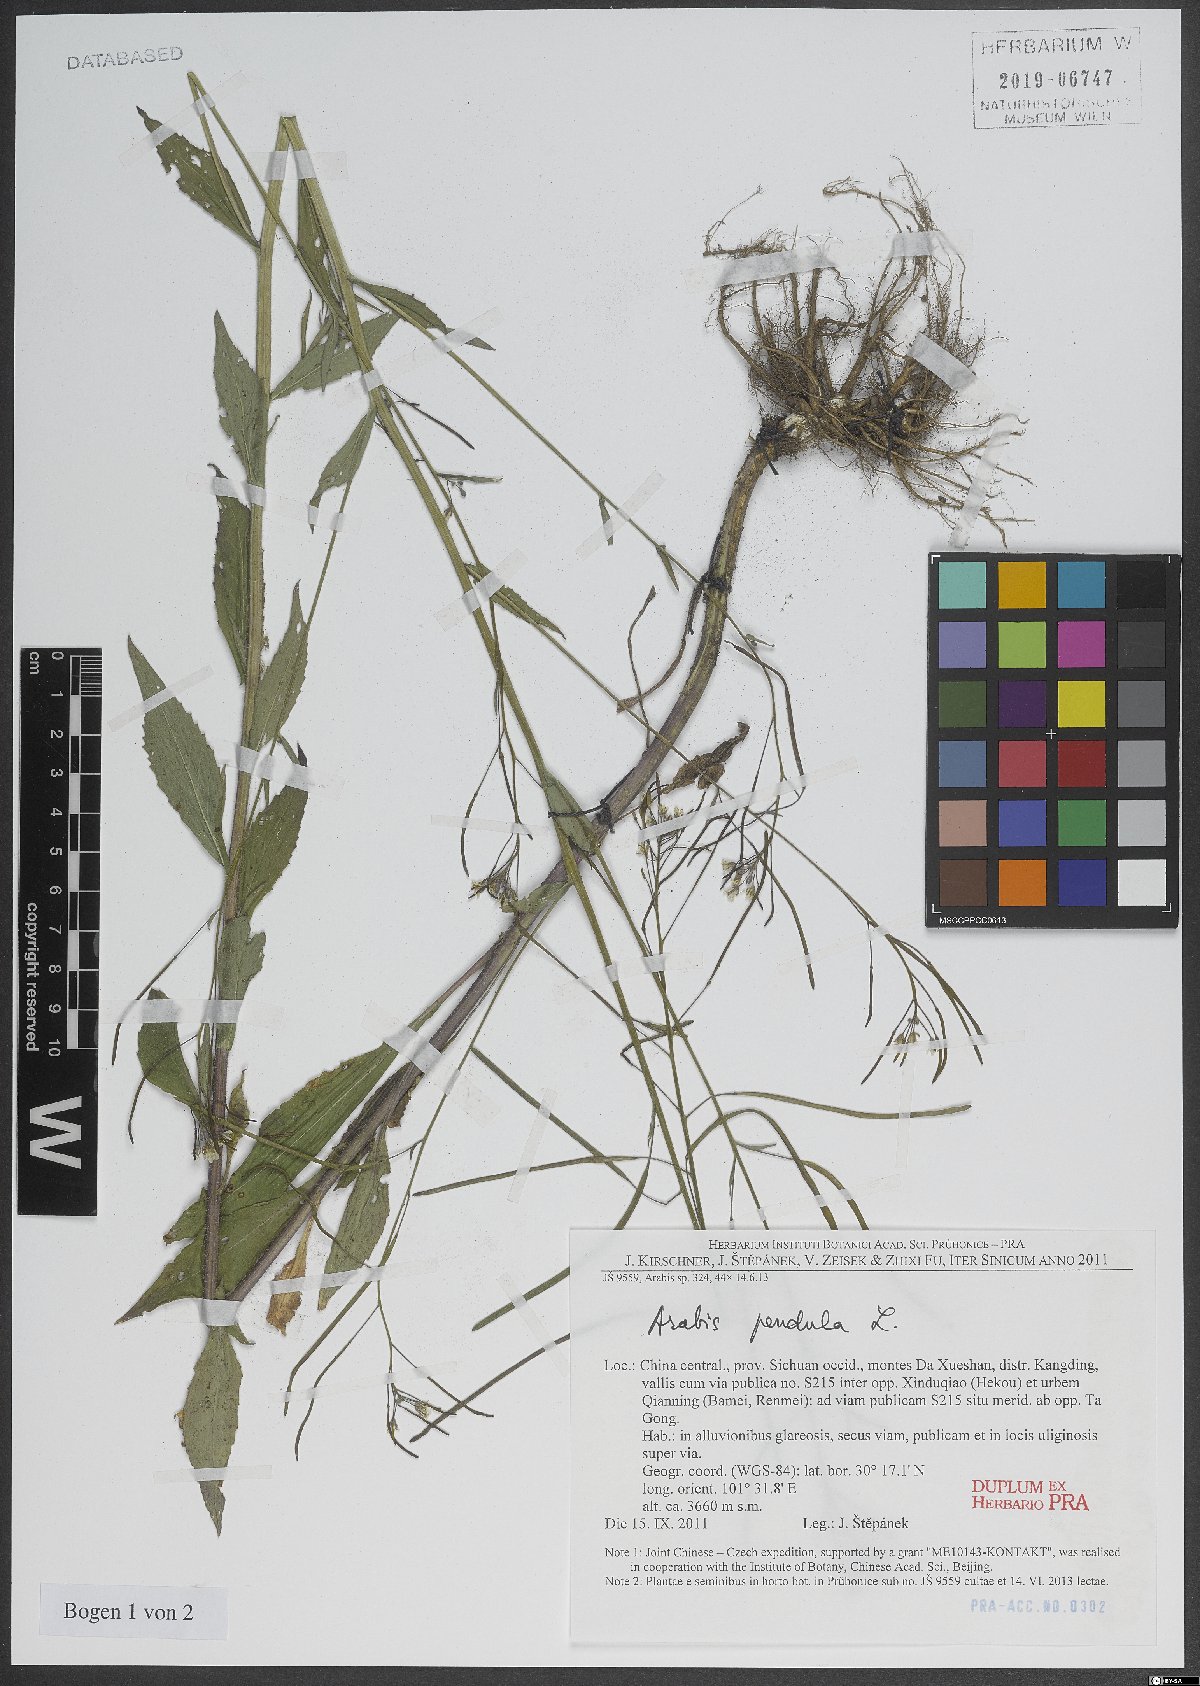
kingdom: Plantae
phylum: Tracheophyta
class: Magnoliopsida
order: Brassicales
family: Brassicaceae
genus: Catolobus
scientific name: Catolobus pendulus
